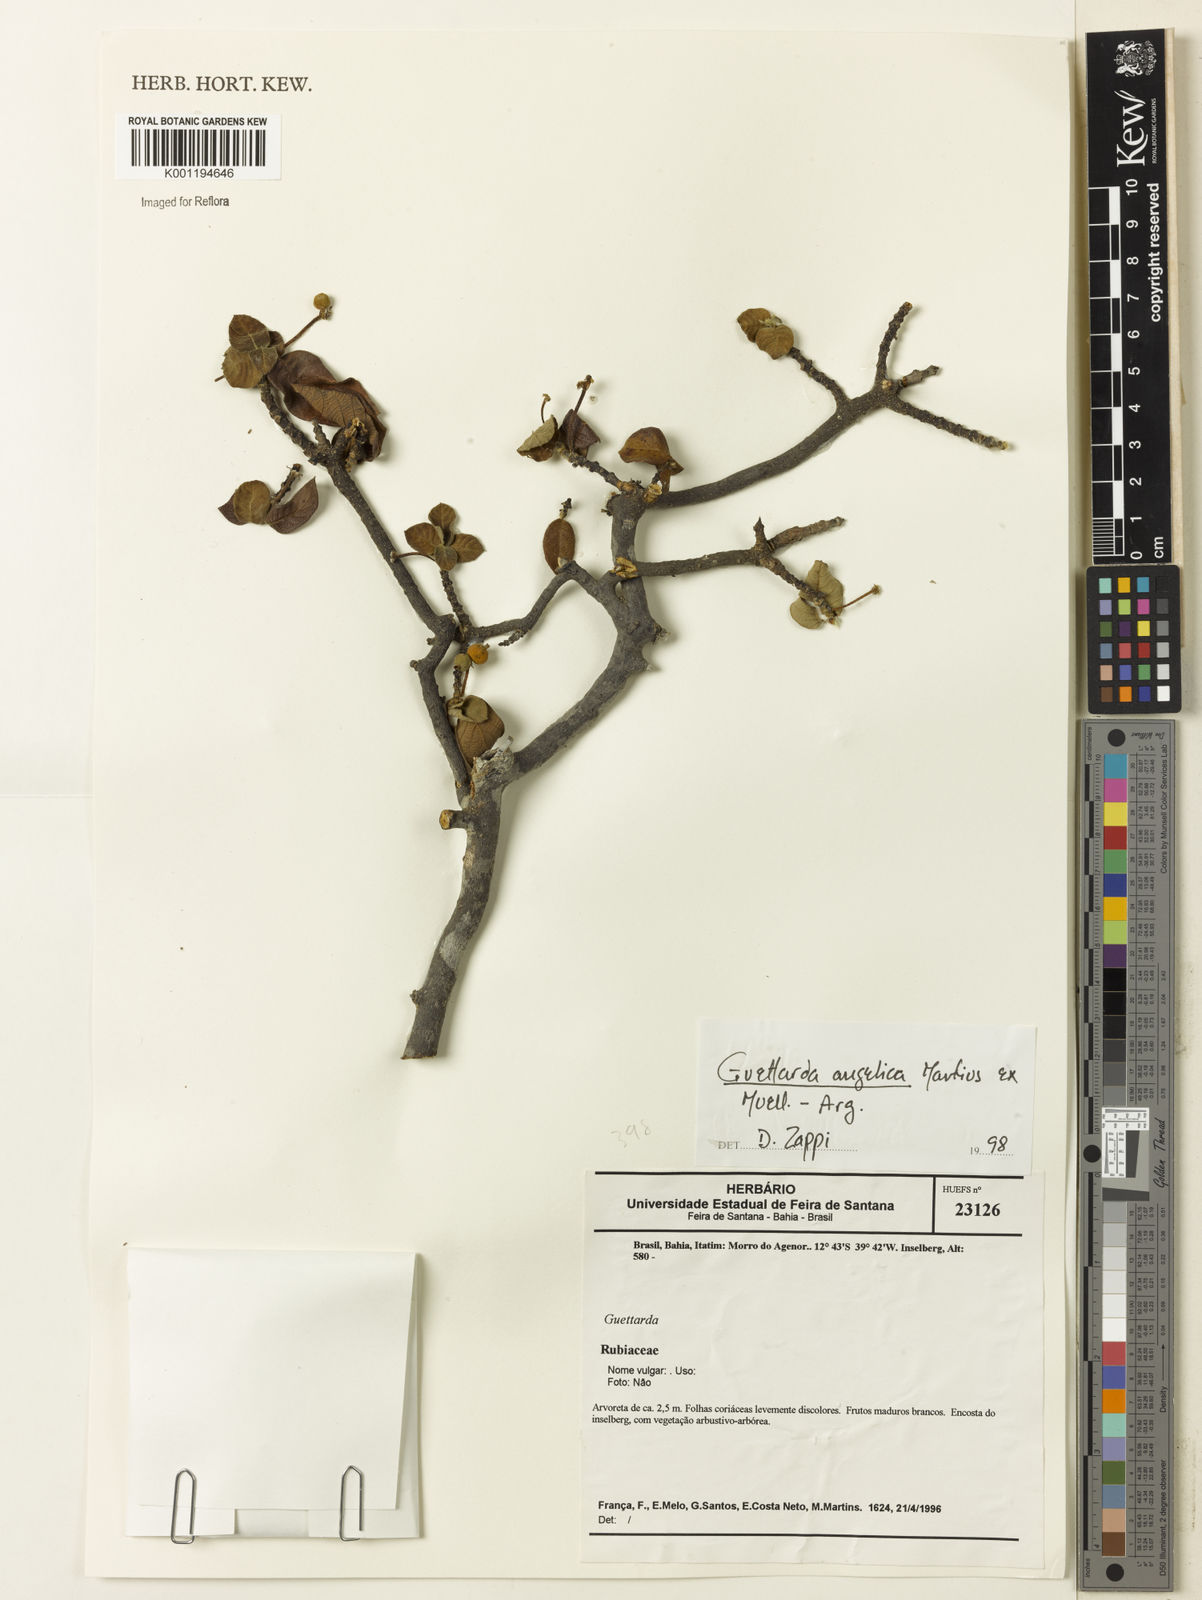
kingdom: Plantae
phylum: Tracheophyta
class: Magnoliopsida
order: Gentianales
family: Rubiaceae
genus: Guettarda
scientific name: Guettarda
